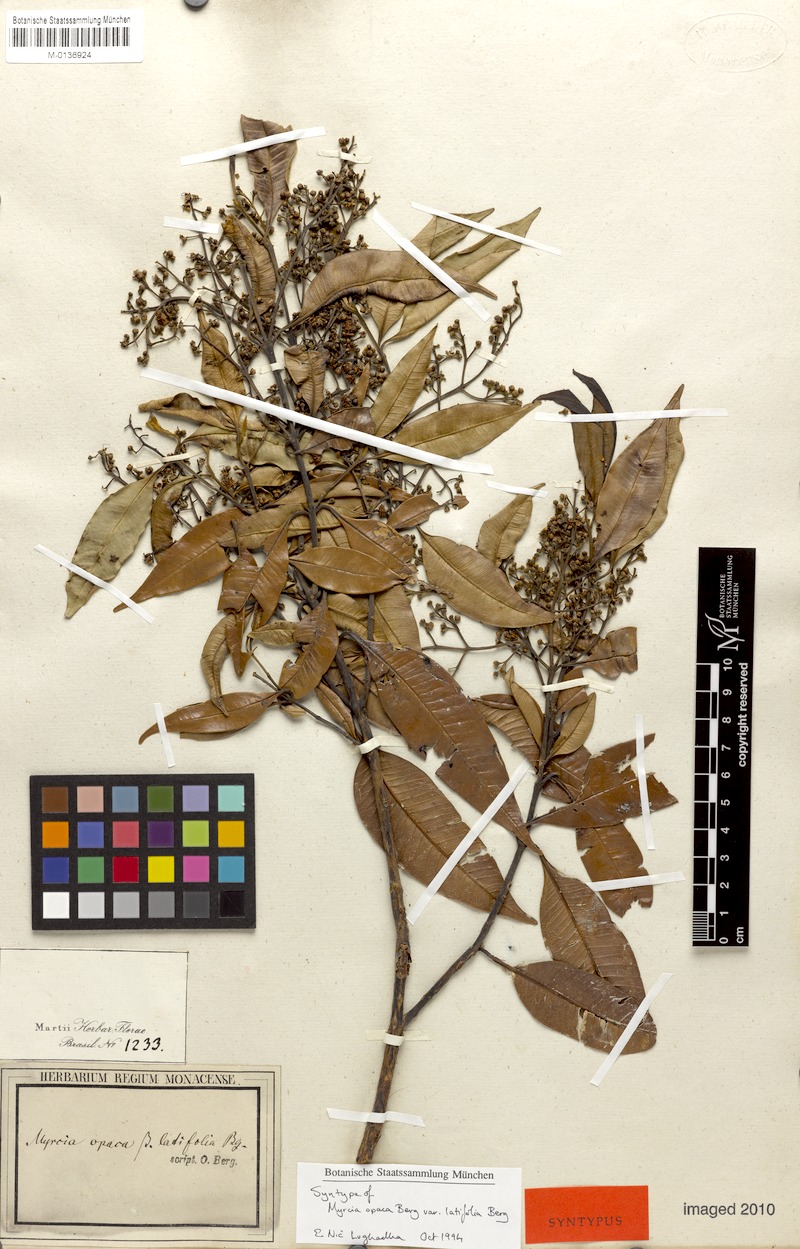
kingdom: Plantae
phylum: Tracheophyta
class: Magnoliopsida
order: Myrtales
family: Myrtaceae
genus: Myrcia
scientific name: Myrcia splendens
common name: Surinam cherry
